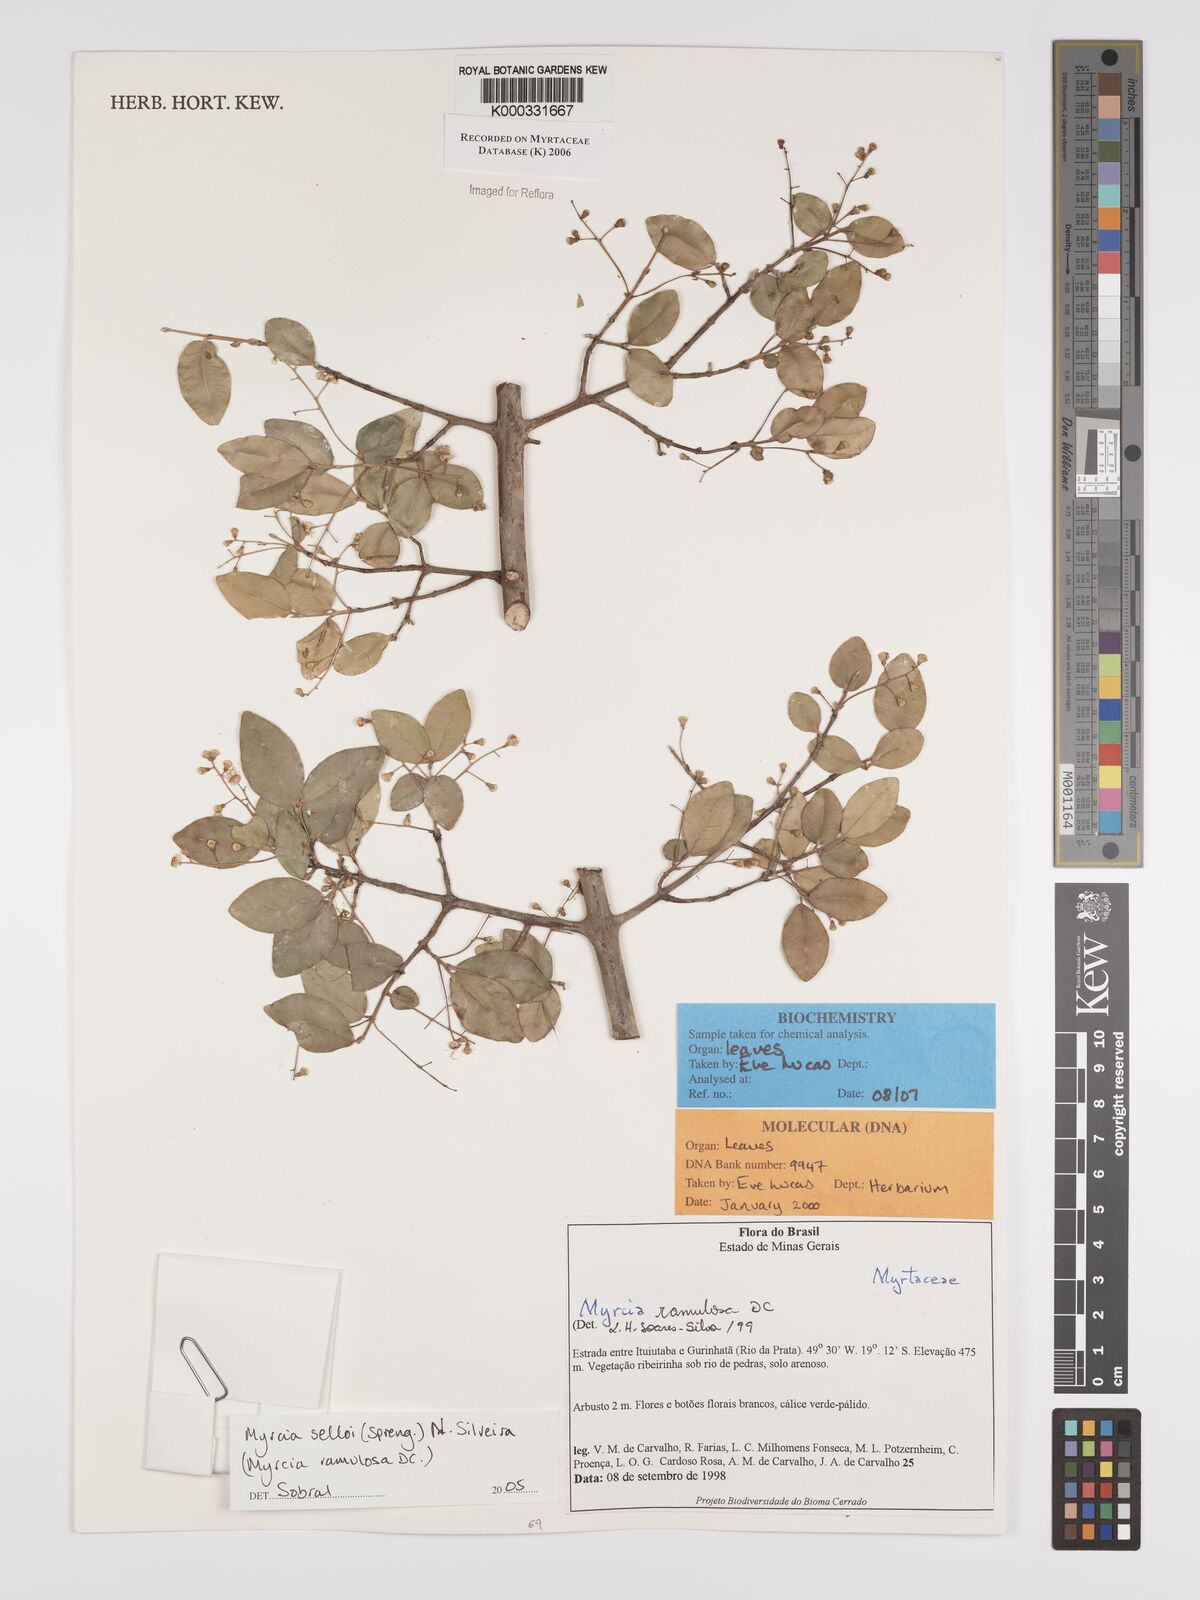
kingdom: Plantae
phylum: Tracheophyta
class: Magnoliopsida
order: Myrtales
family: Myrtaceae
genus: Myrcia
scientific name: Myrcia selloi
